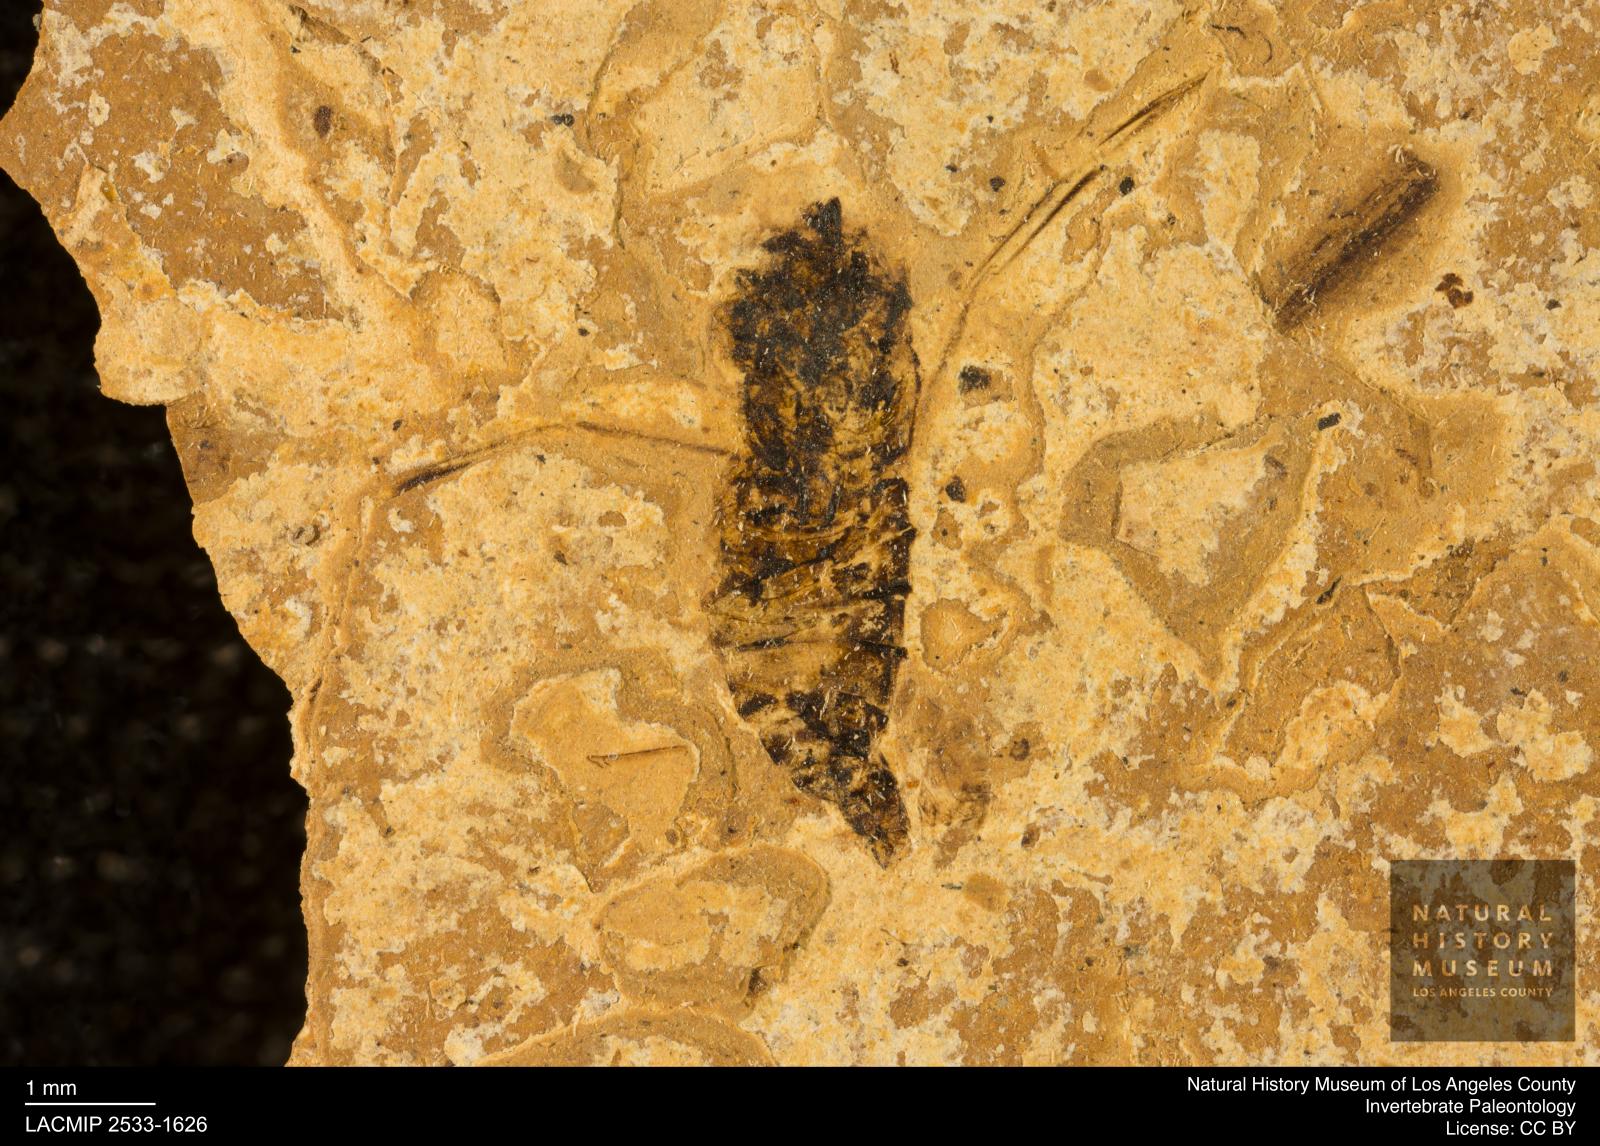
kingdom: Animalia
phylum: Arthropoda
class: Insecta
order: Hemiptera
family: Notonectidae
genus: Notonecta
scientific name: Notonecta
